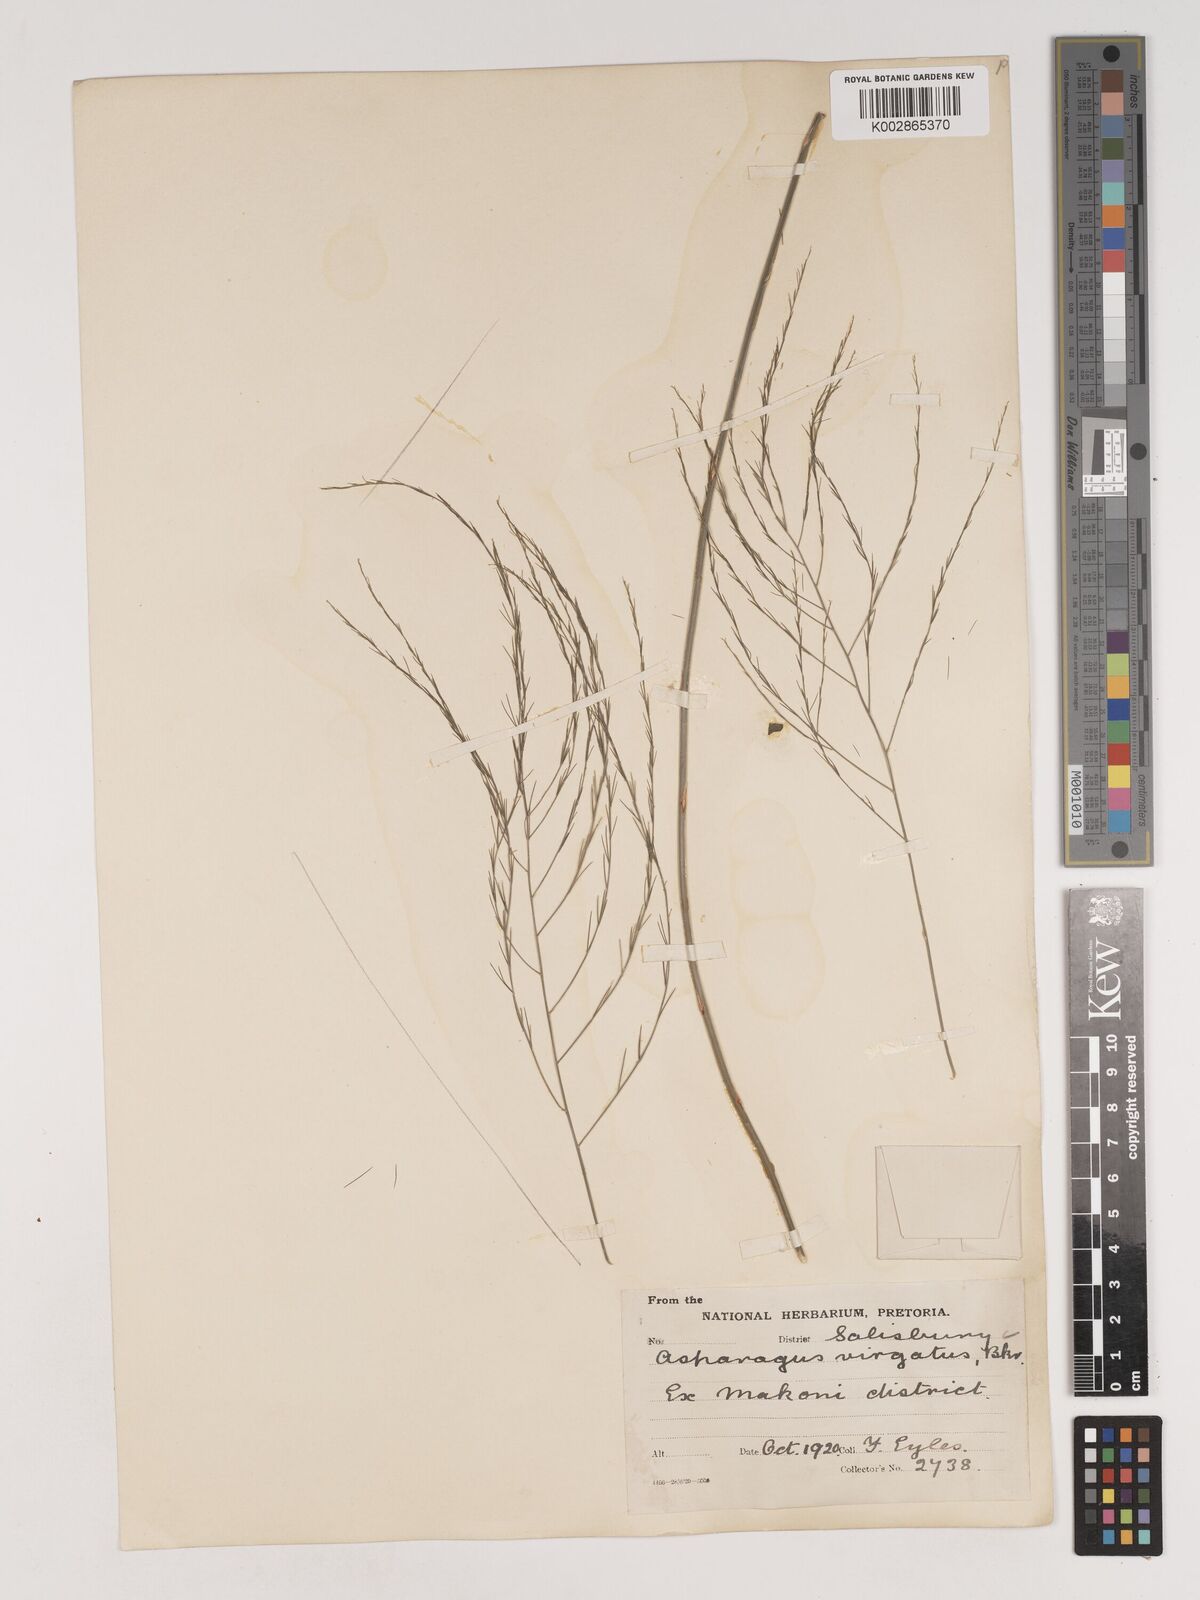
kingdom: Plantae
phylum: Tracheophyta
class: Liliopsida
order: Asparagales
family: Asparagaceae
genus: Asparagus
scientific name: Asparagus virgatus
